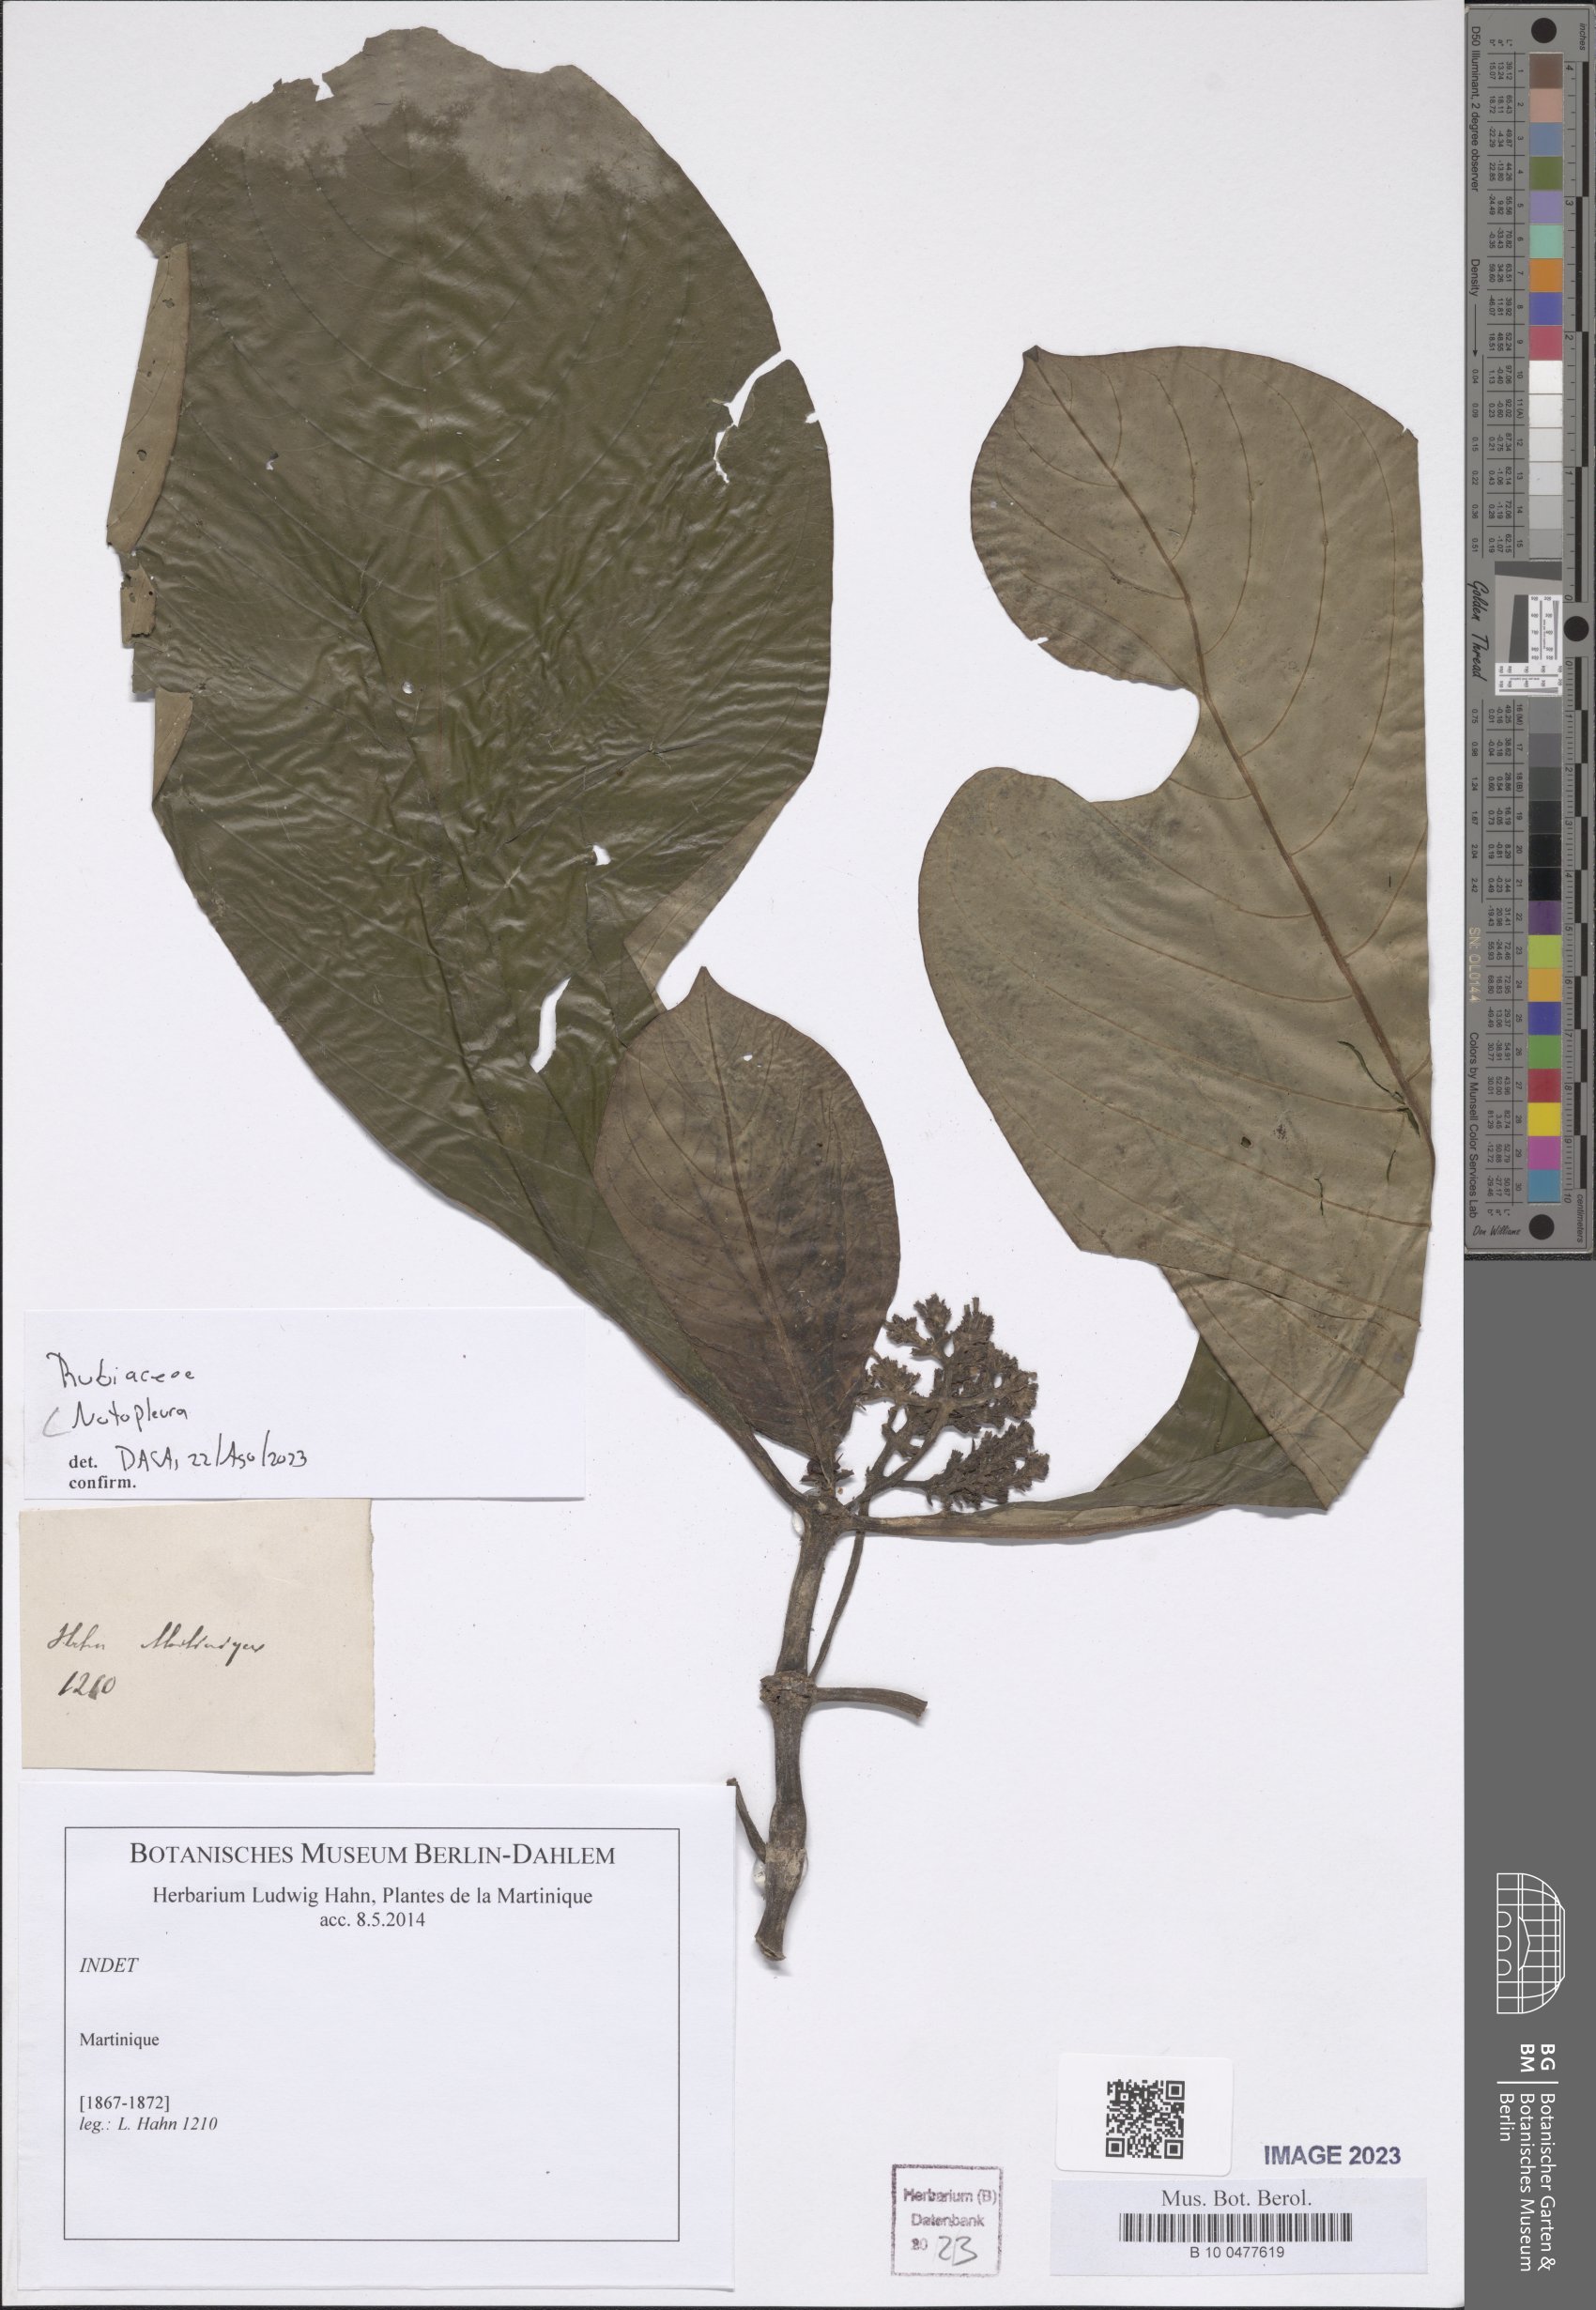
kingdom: Plantae
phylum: Tracheophyta
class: Magnoliopsida
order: Gentianales
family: Rubiaceae
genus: Notopleura
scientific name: Notopleura
